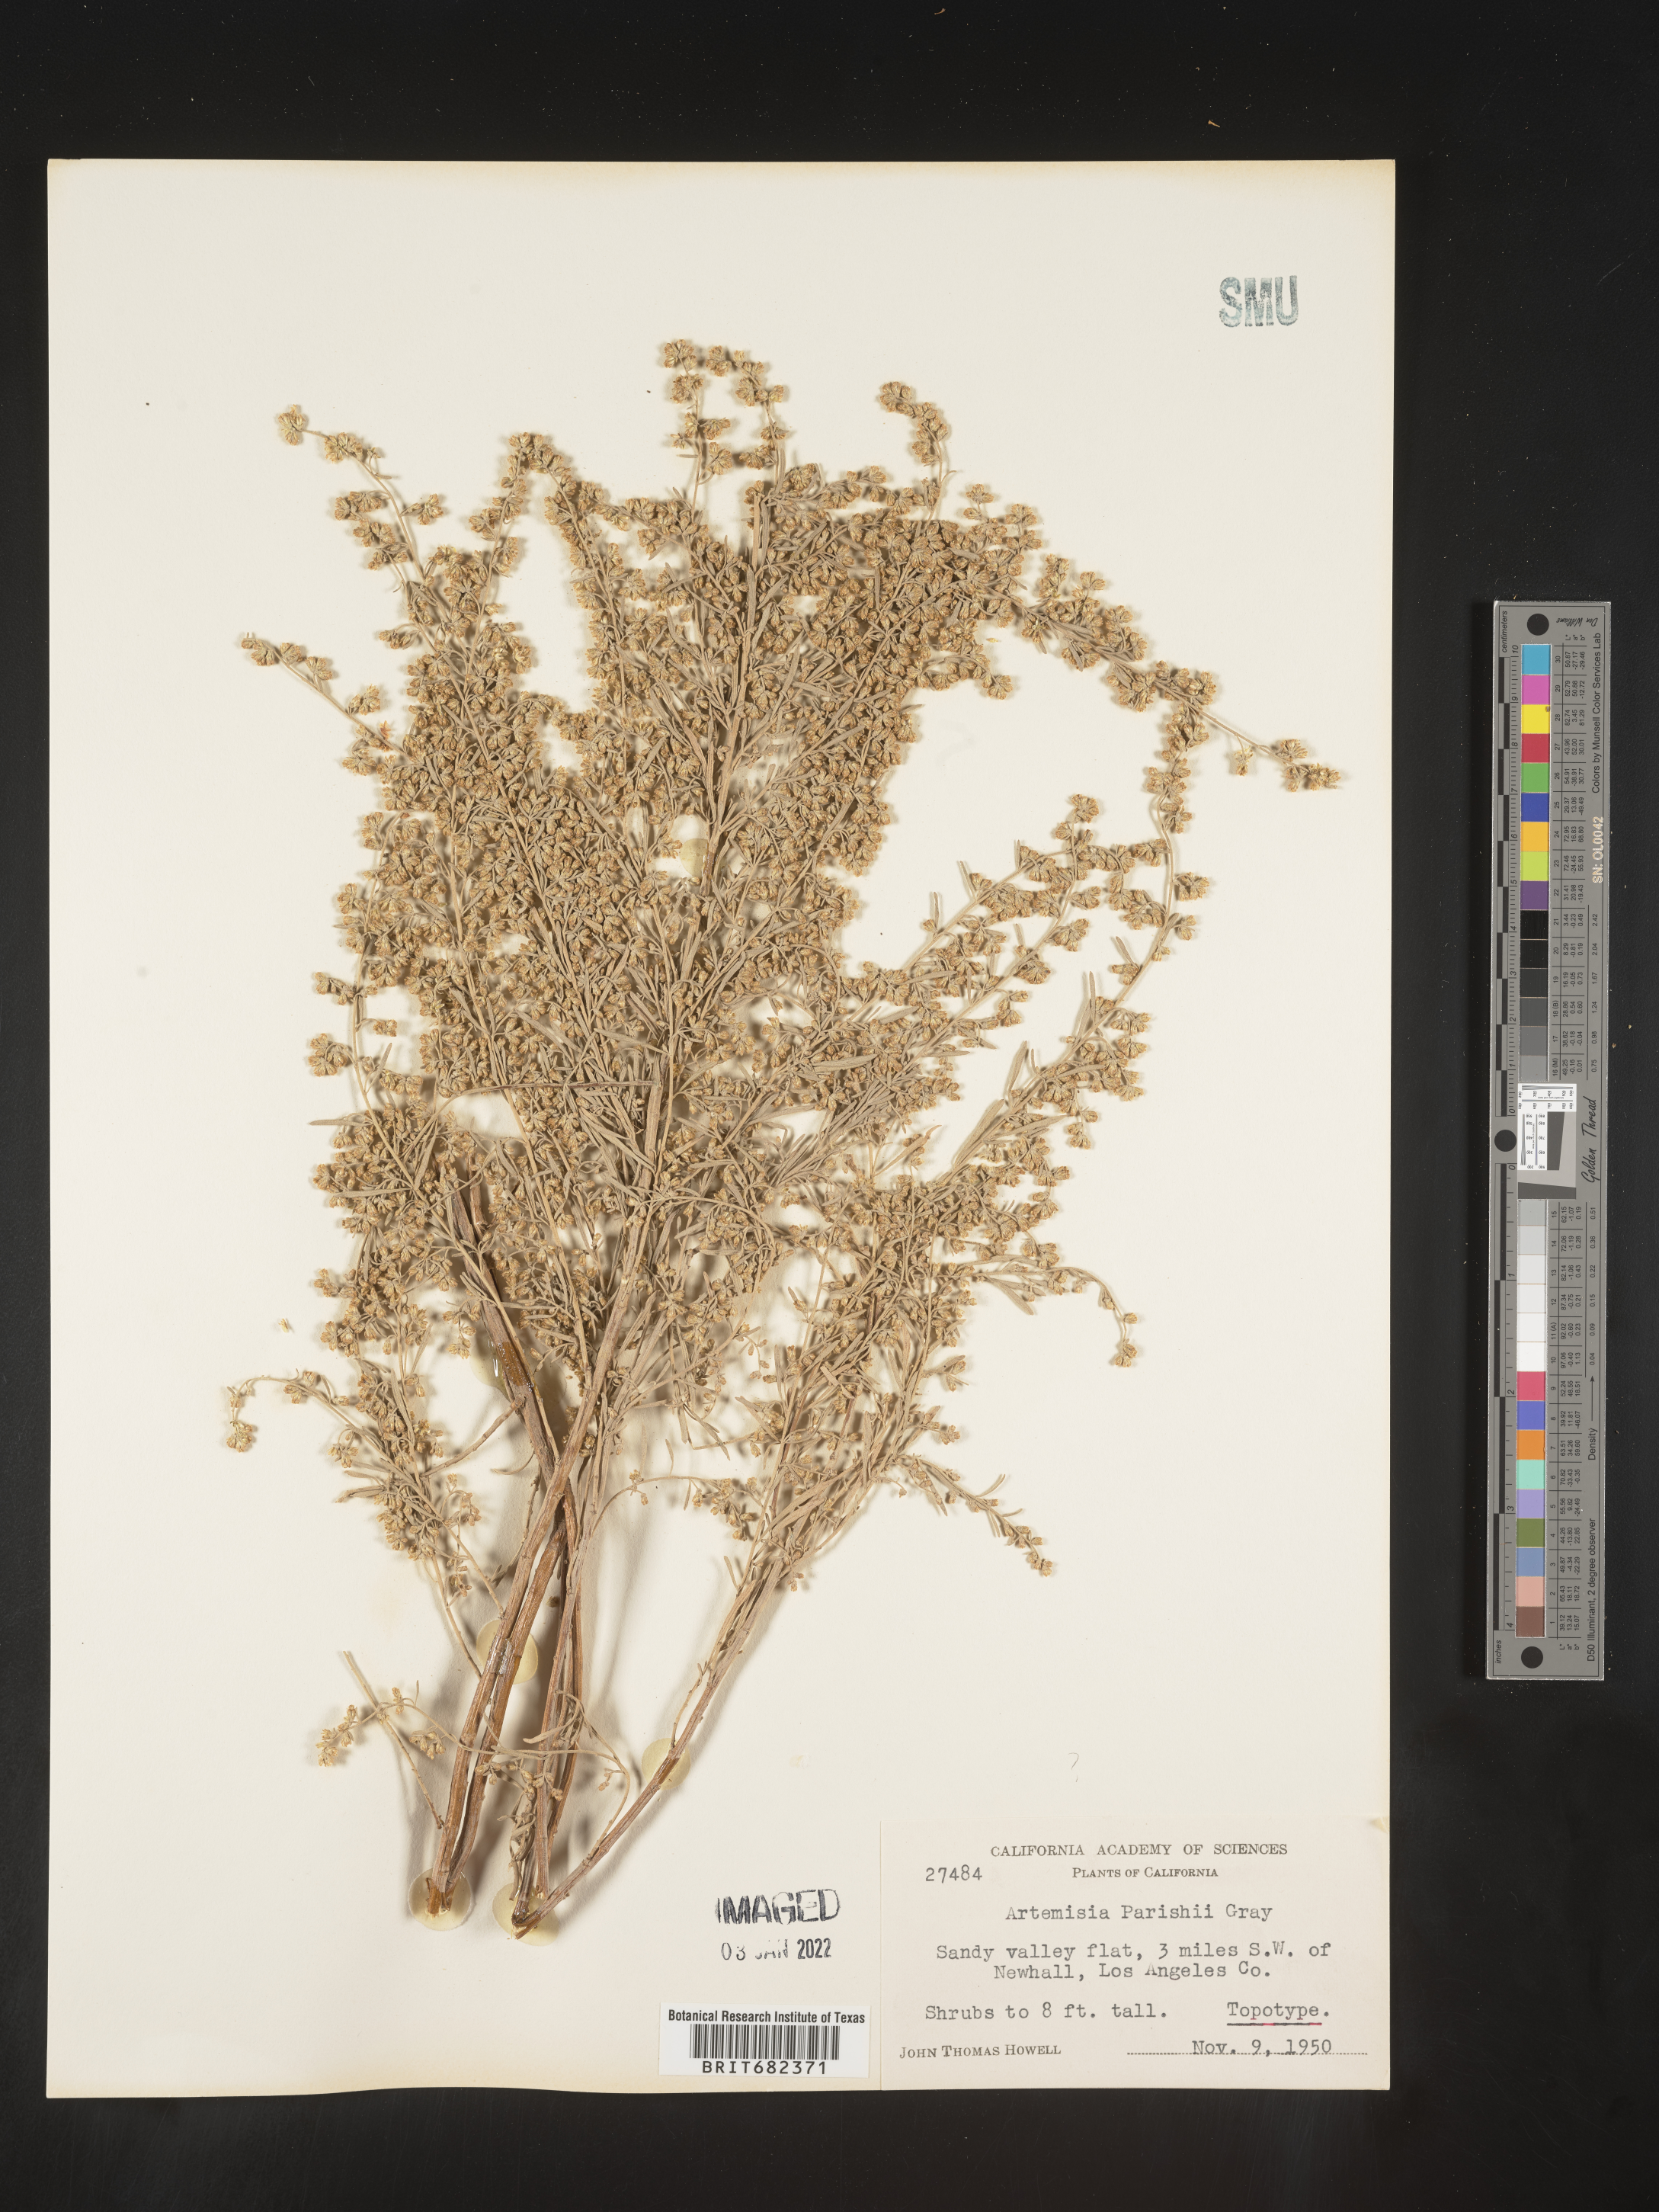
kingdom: Plantae
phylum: Tracheophyta
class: Magnoliopsida
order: Asterales
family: Asteraceae
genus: Artemisia
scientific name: Artemisia
